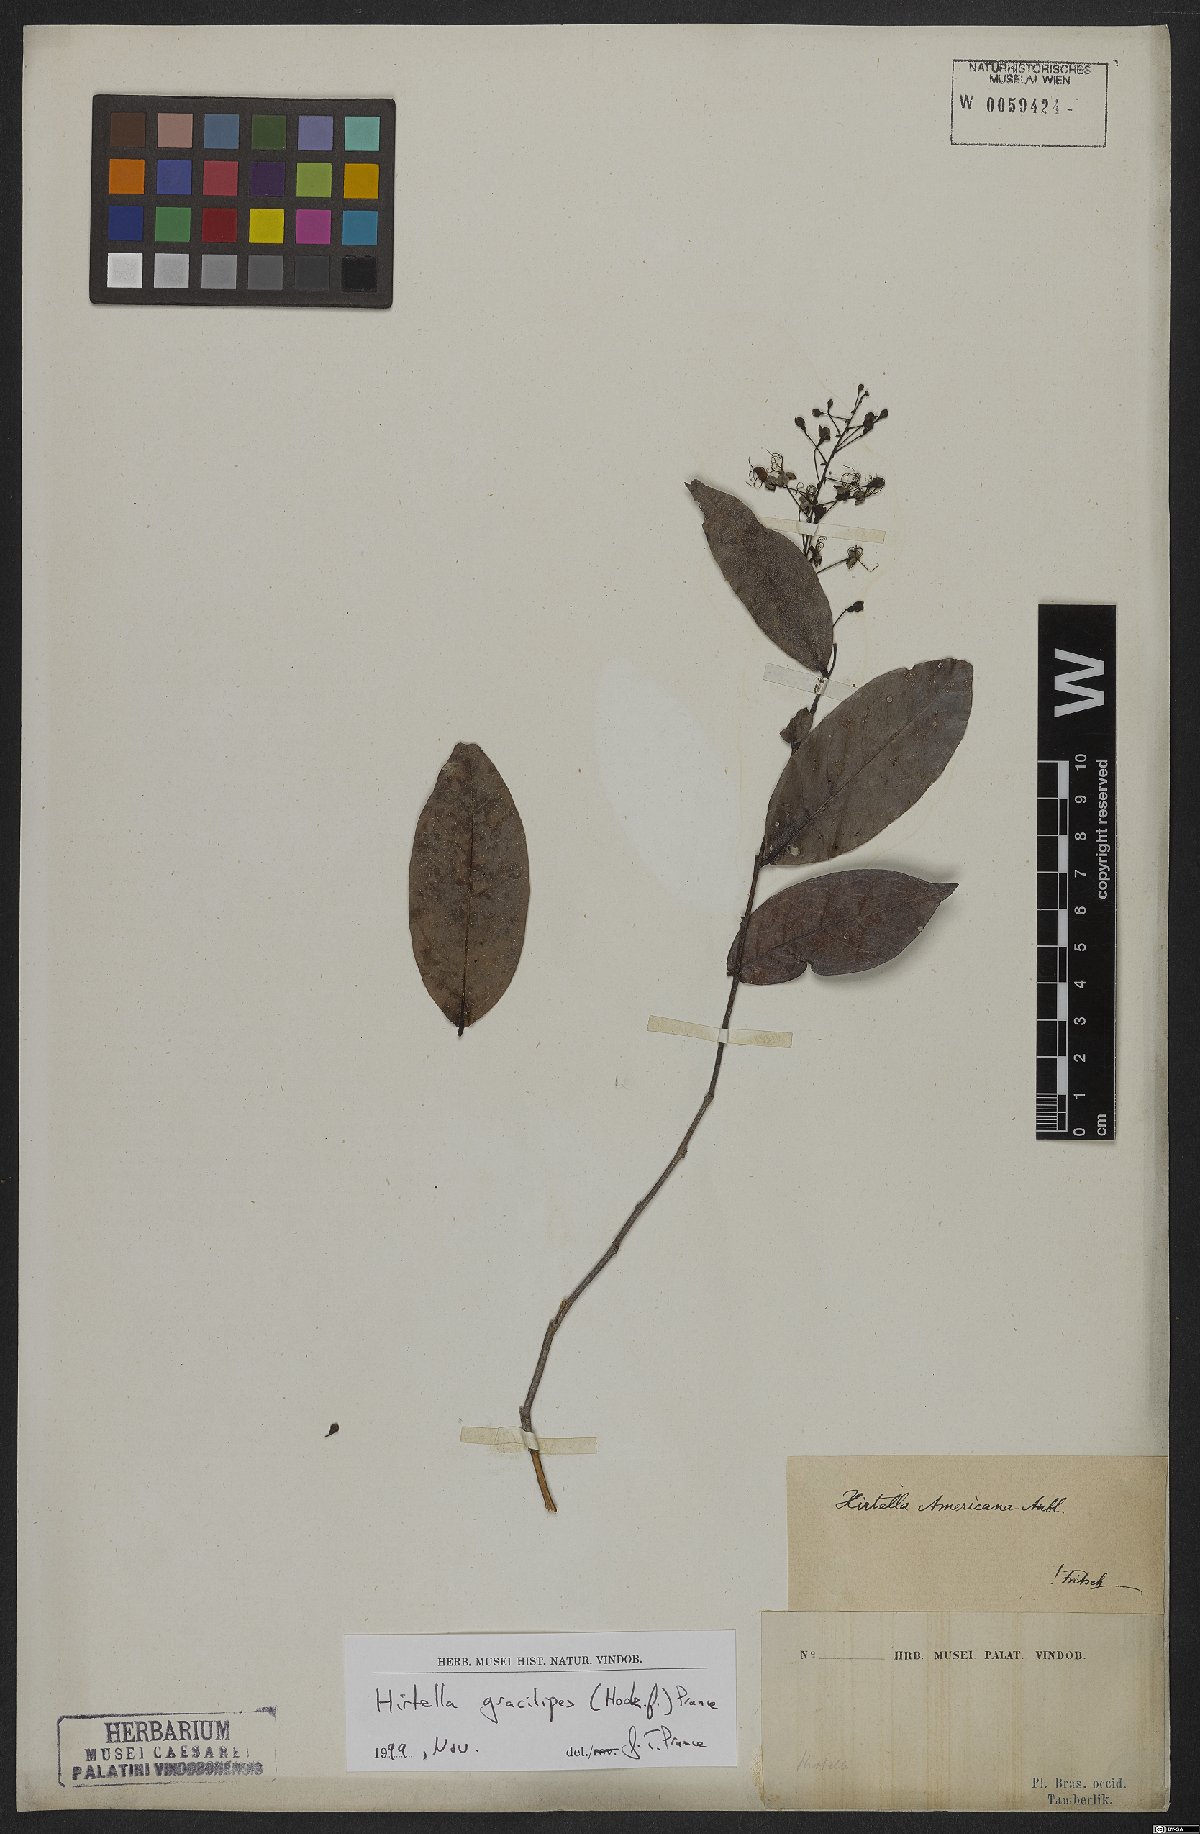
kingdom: Plantae
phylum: Tracheophyta
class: Magnoliopsida
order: Malpighiales
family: Chrysobalanaceae
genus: Hirtella
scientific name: Hirtella gracilipes
